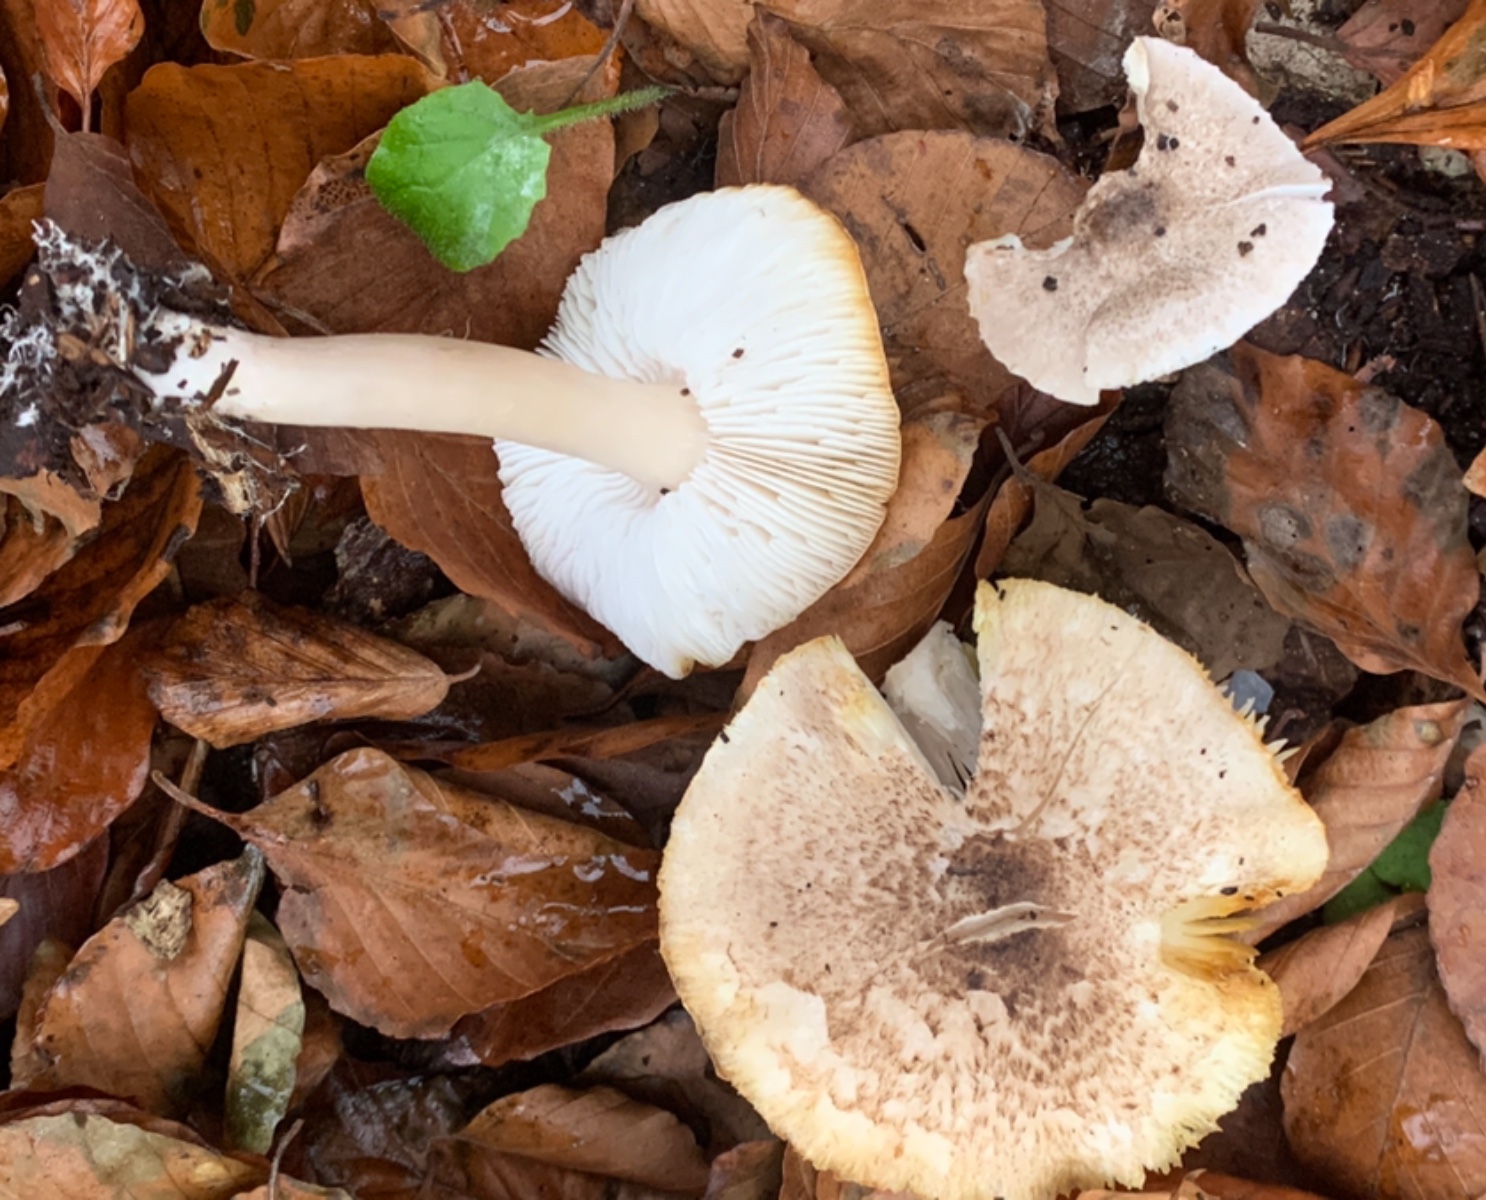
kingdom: Fungi
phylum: Basidiomycota
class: Agaricomycetes
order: Agaricales
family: Tricholomataceae
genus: Tricholoma
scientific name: Tricholoma scalpturatum
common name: gulplettet ridderhat
